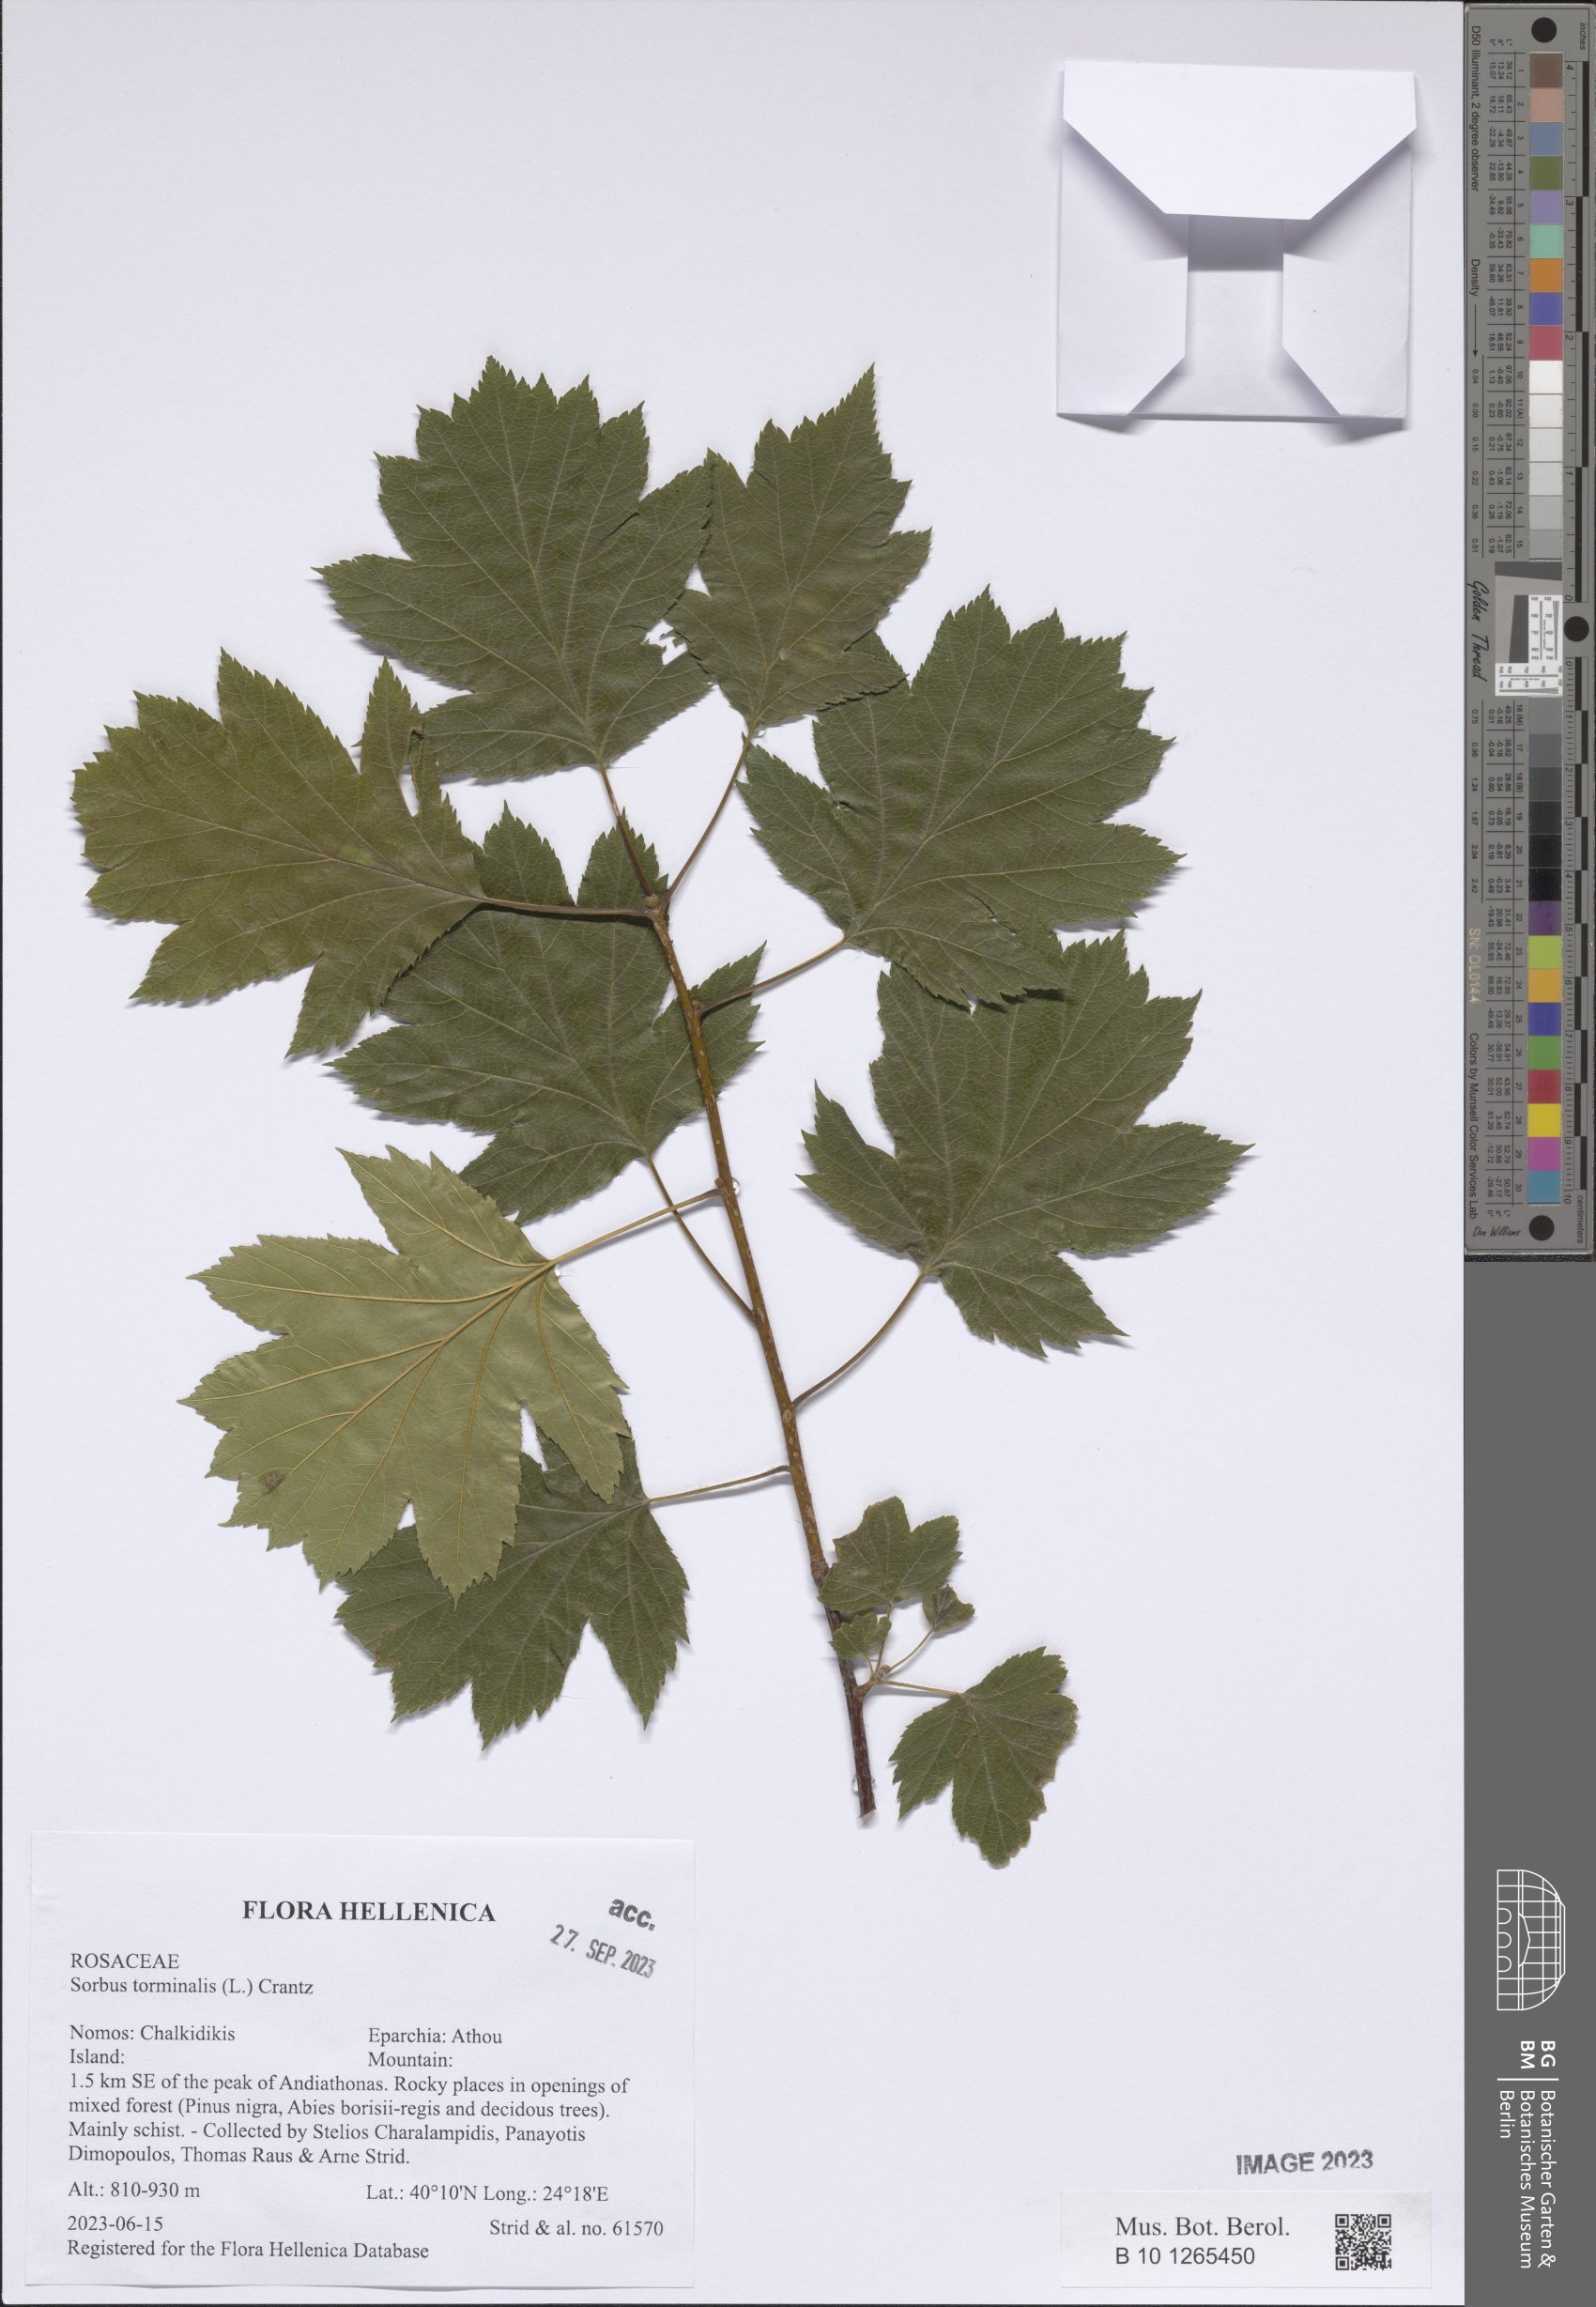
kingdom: Plantae
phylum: Tracheophyta
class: Magnoliopsida
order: Rosales
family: Rosaceae
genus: Torminalis
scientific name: Torminalis glaberrima
